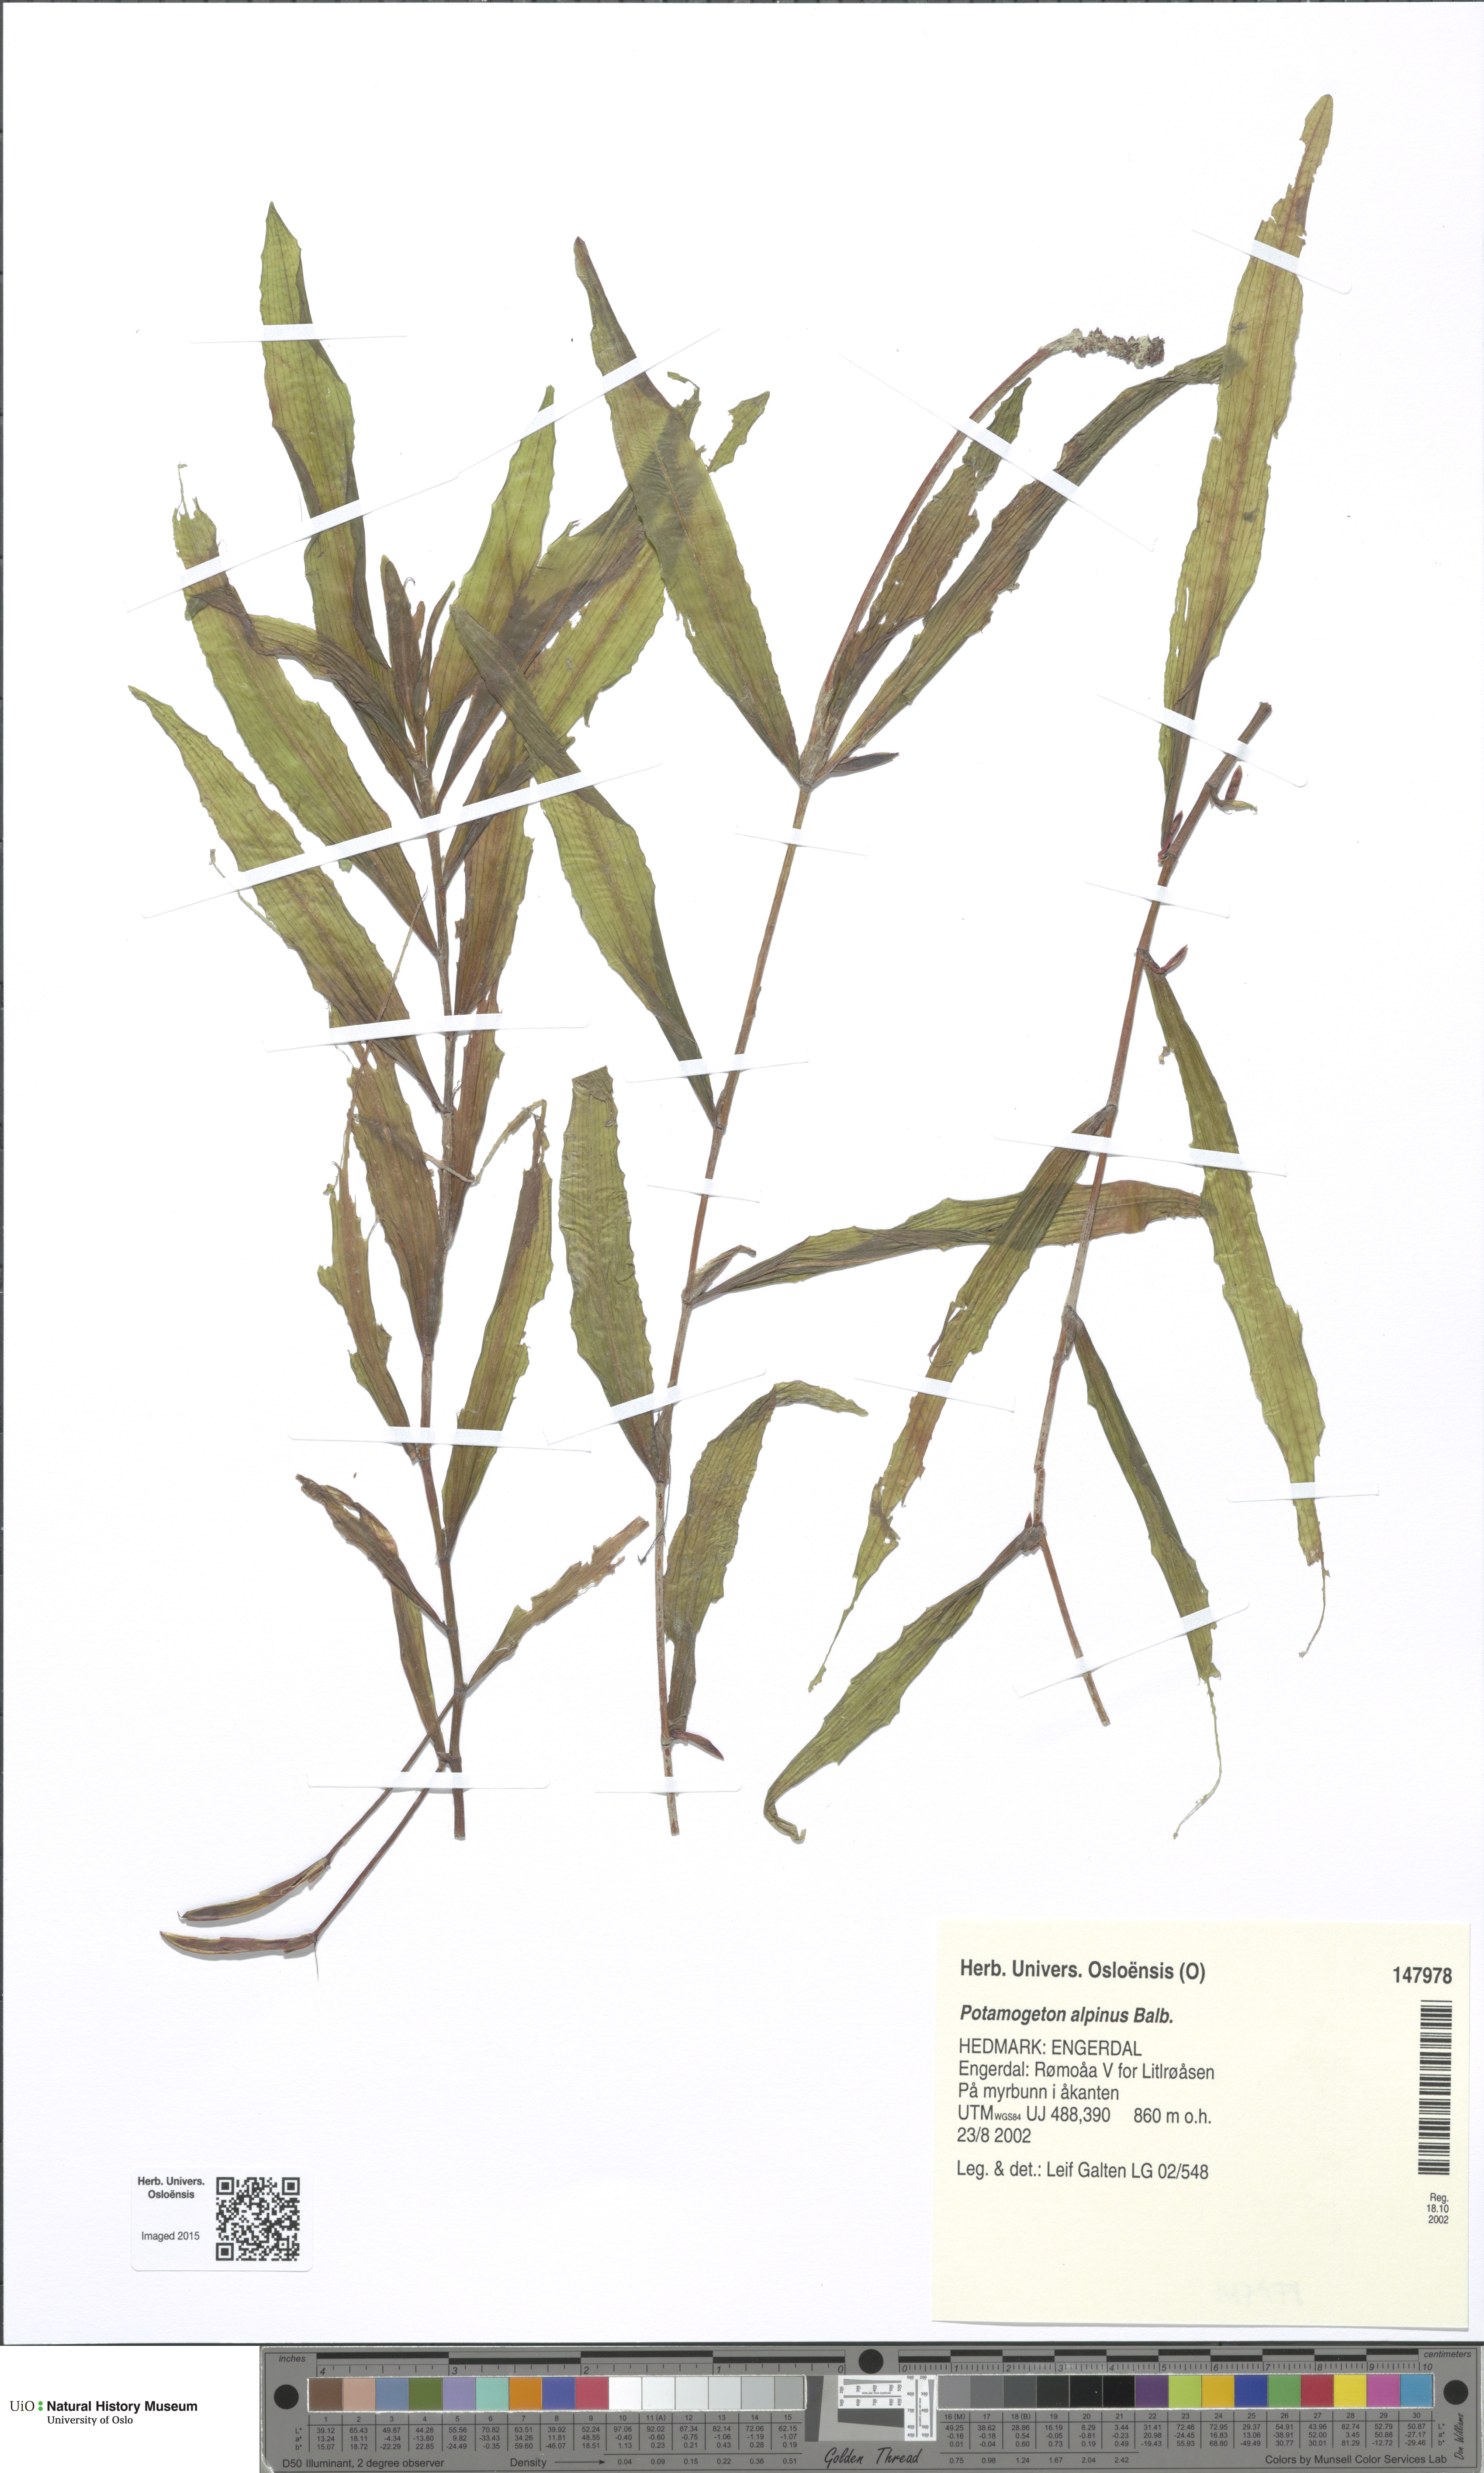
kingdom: Plantae
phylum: Tracheophyta
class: Liliopsida
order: Alismatales
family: Potamogetonaceae
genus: Potamogeton
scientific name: Potamogeton alpinus
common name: Red pondweed
